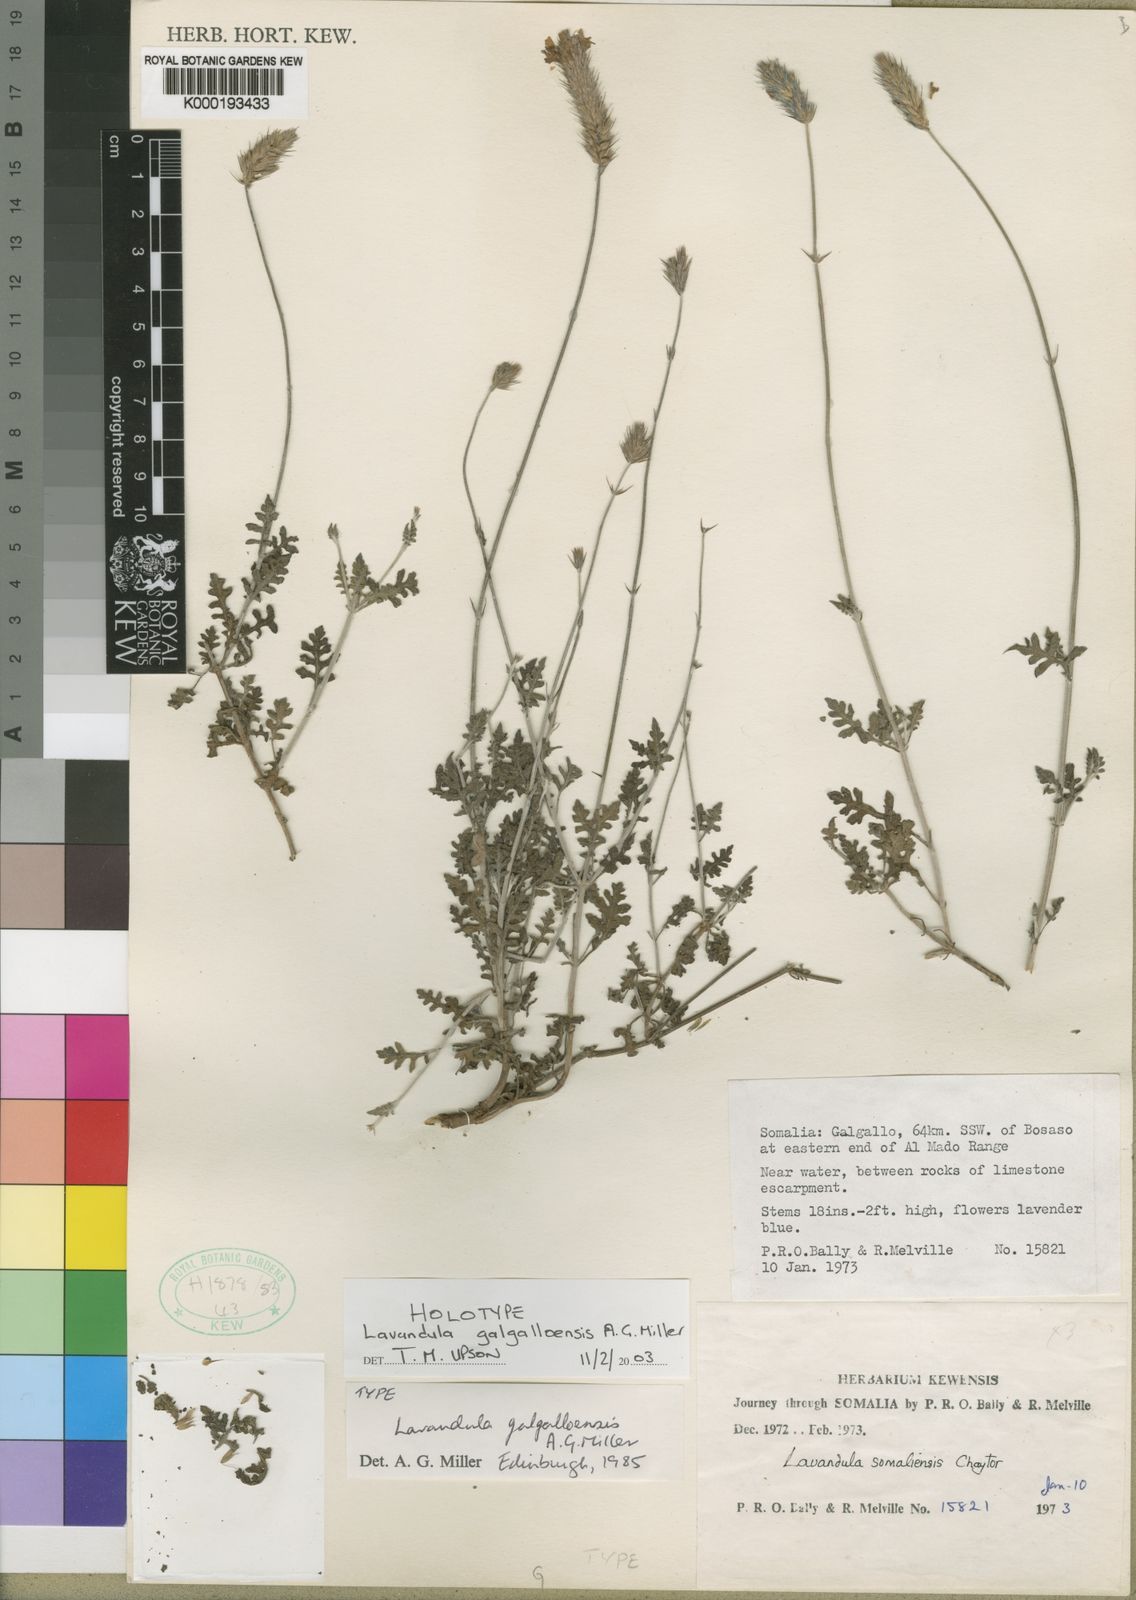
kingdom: Plantae
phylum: Tracheophyta
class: Magnoliopsida
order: Lamiales
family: Lamiaceae
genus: Lavandula
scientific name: Lavandula galgalloensis
